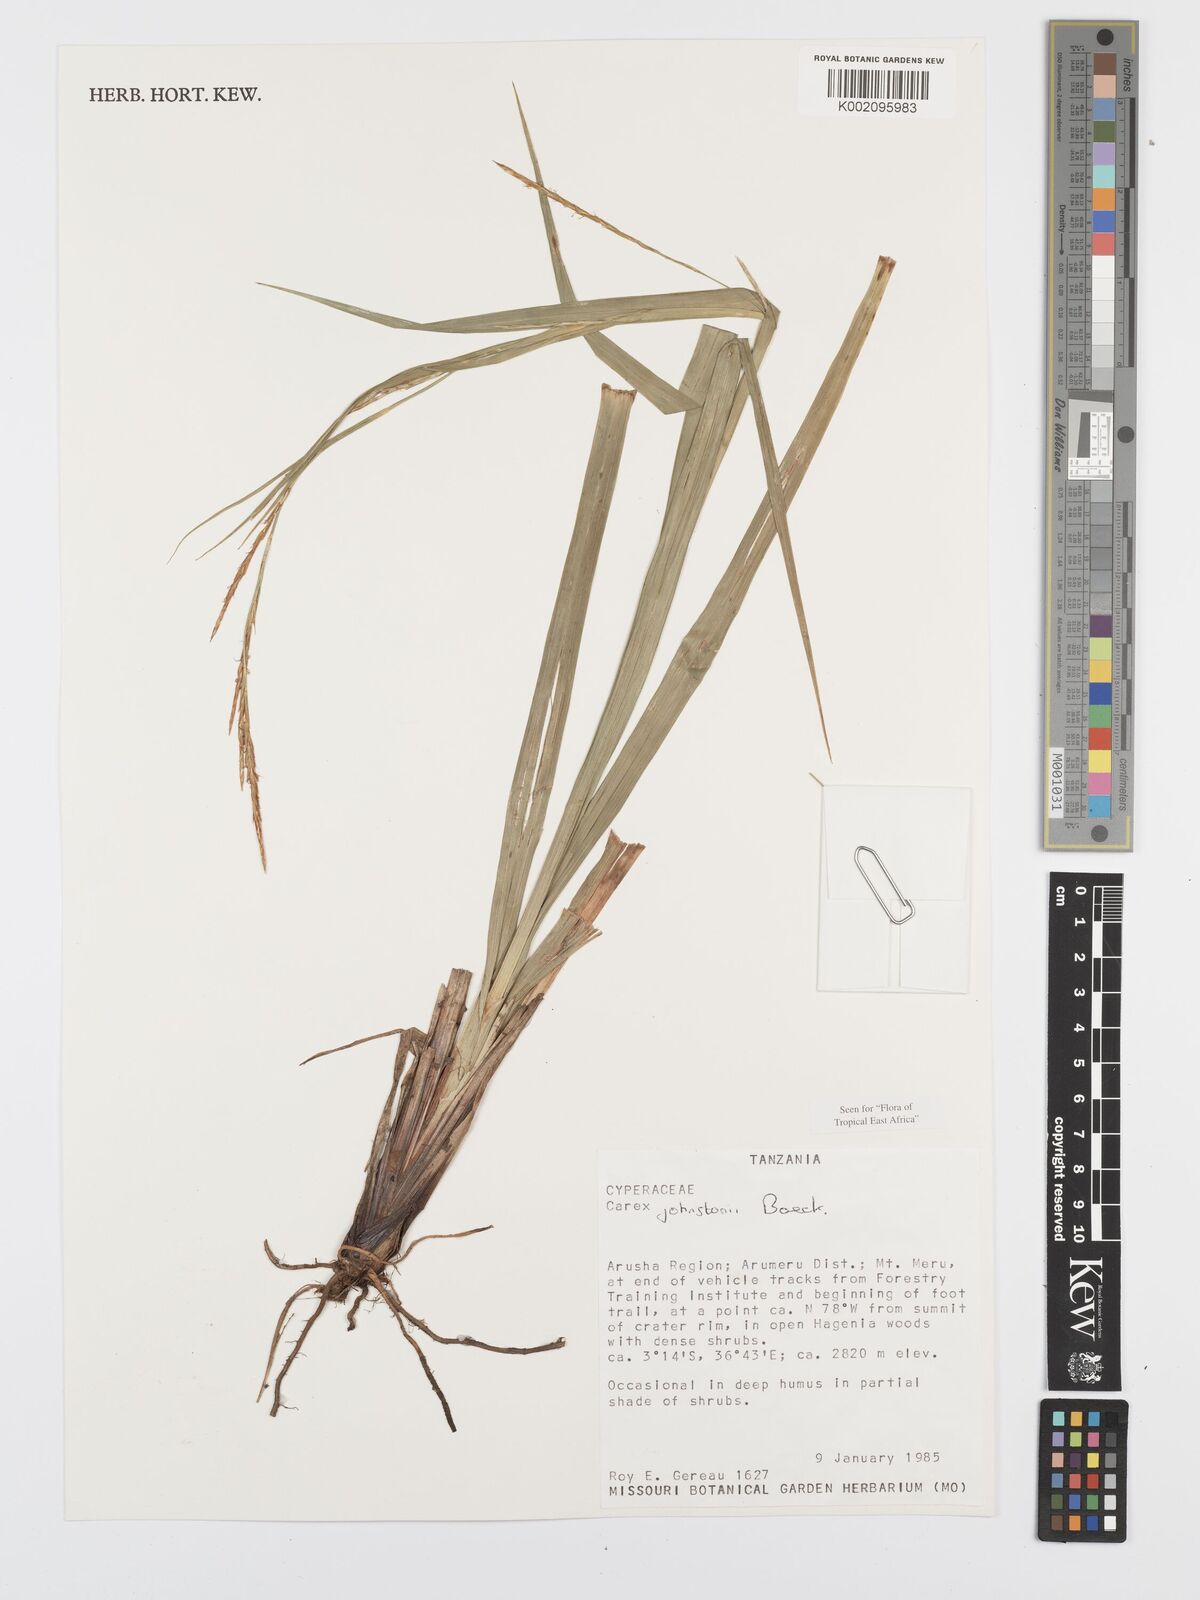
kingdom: Plantae
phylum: Tracheophyta
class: Liliopsida
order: Poales
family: Cyperaceae
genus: Carex
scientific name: Carex johnstonii
